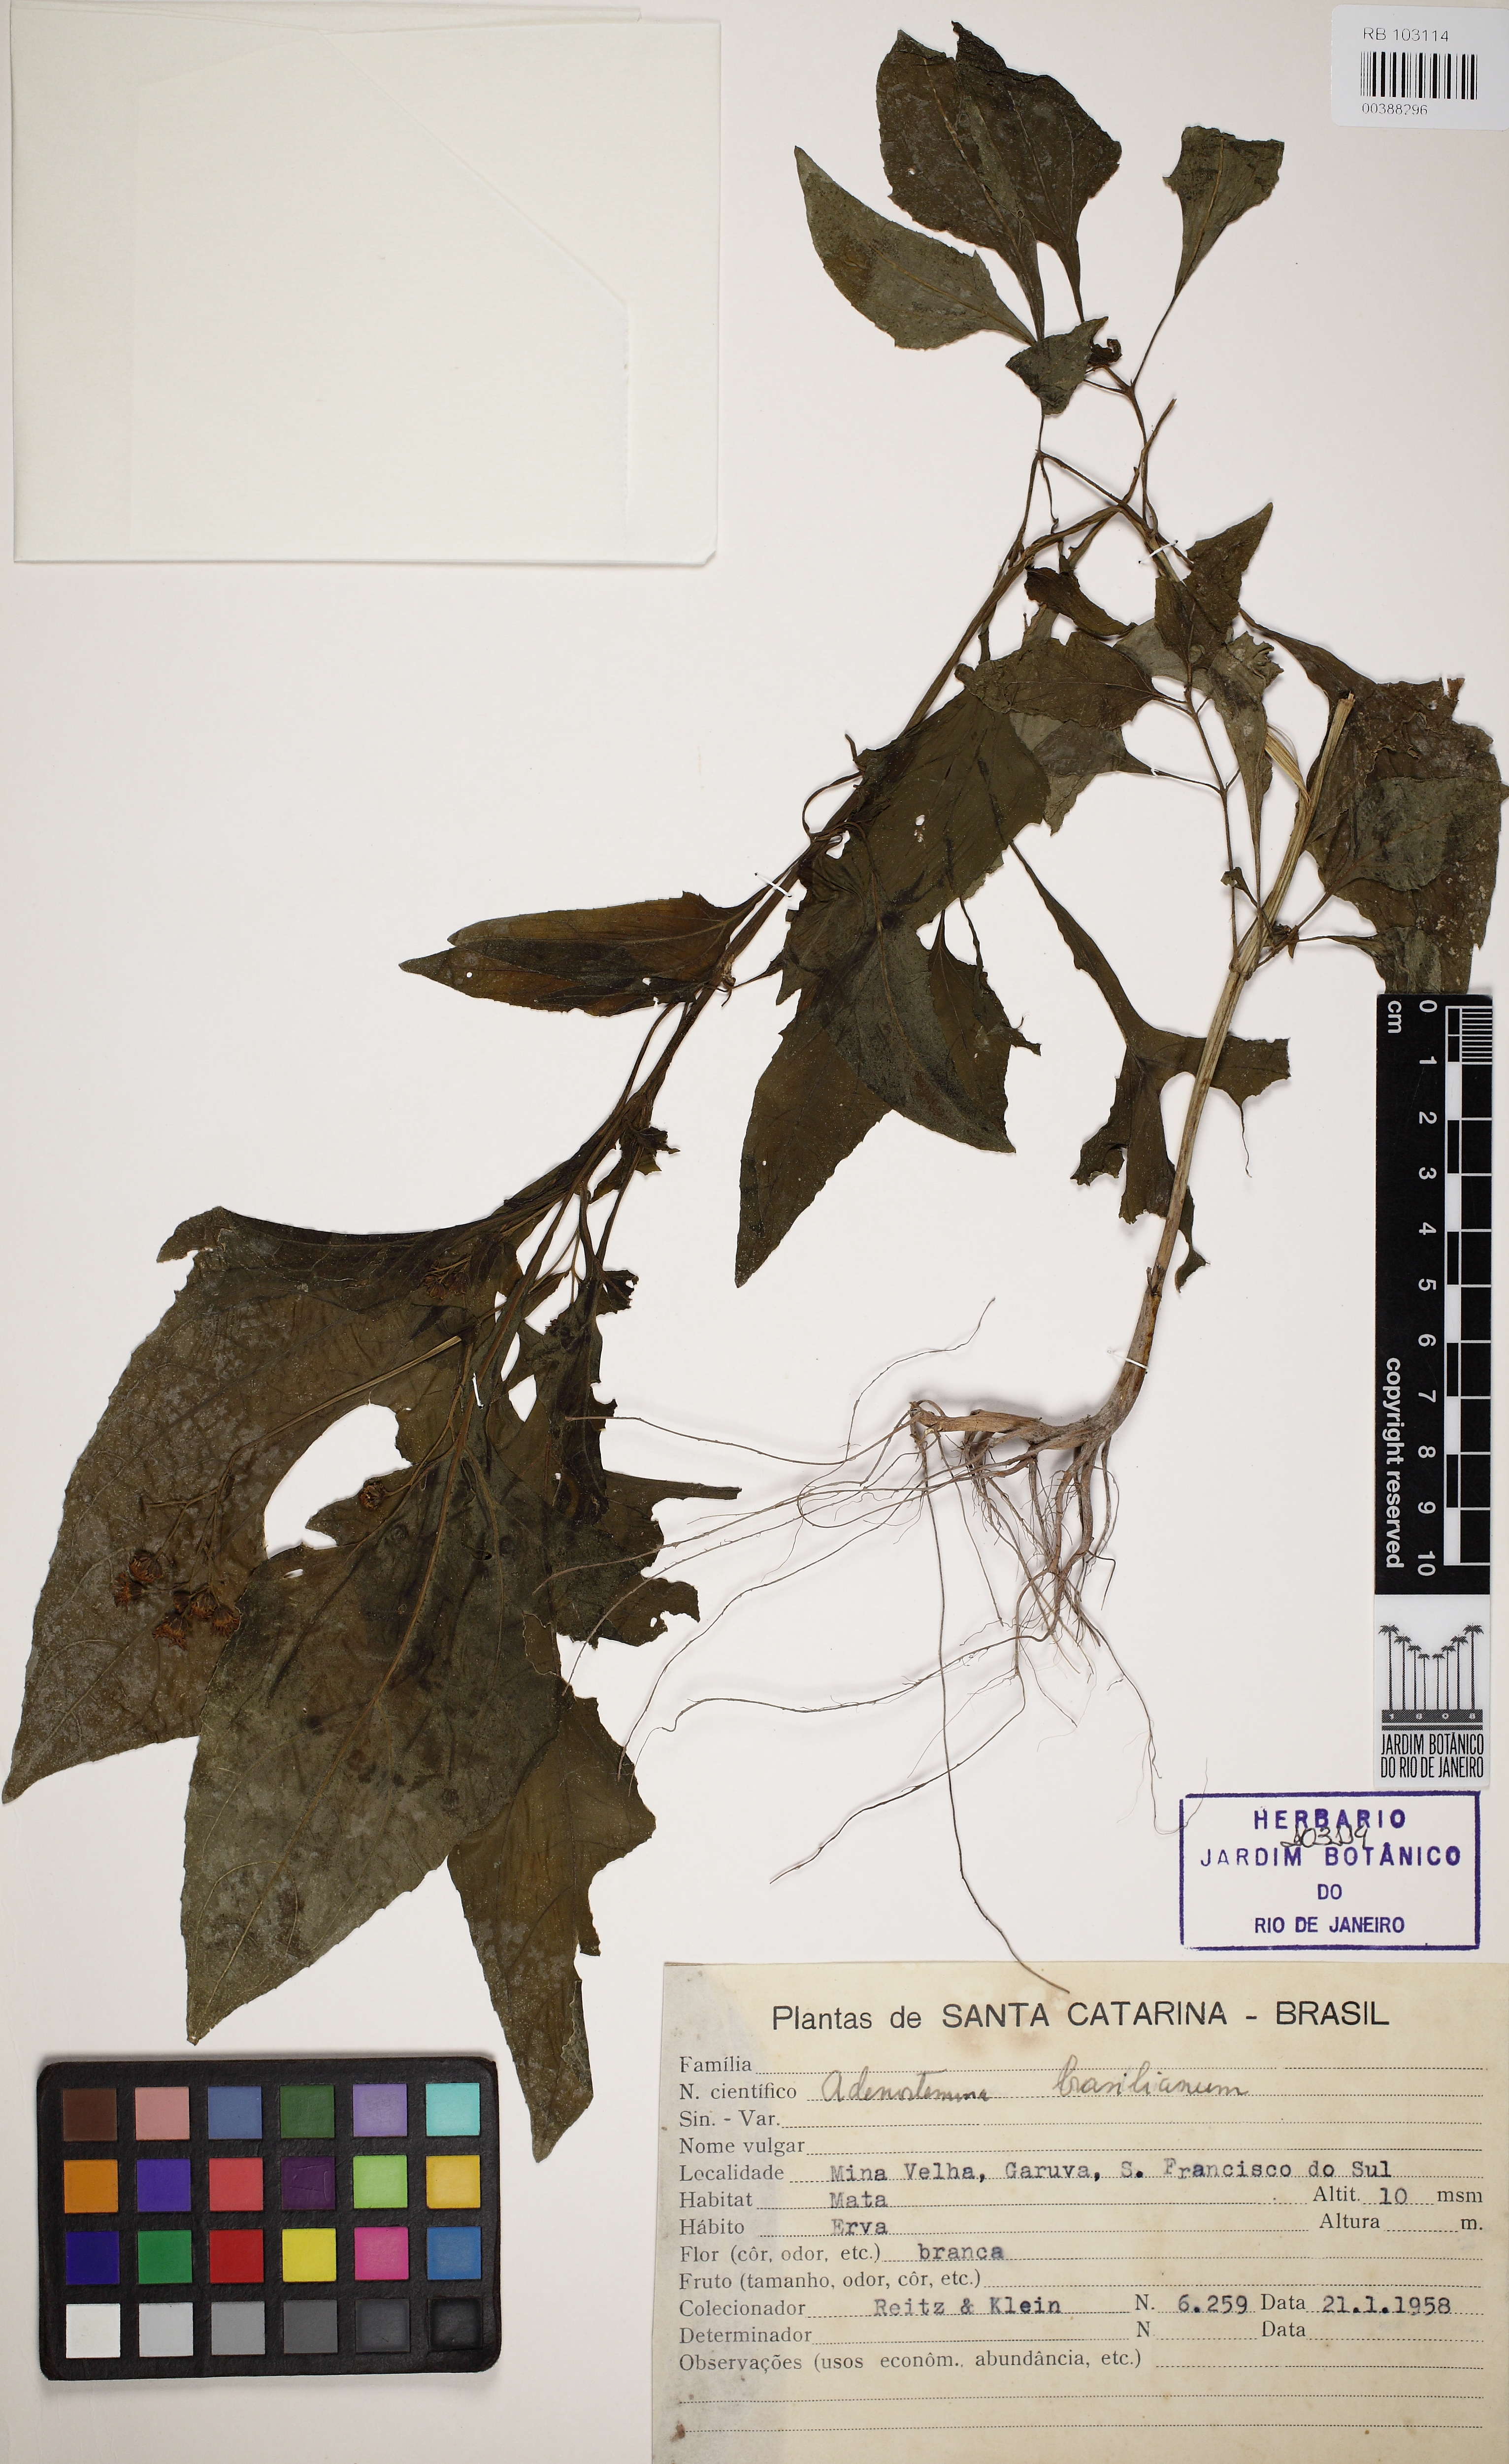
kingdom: Plantae
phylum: Tracheophyta
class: Magnoliopsida
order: Asterales
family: Asteraceae
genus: Adenostemma
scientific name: Adenostemma brasilianum
